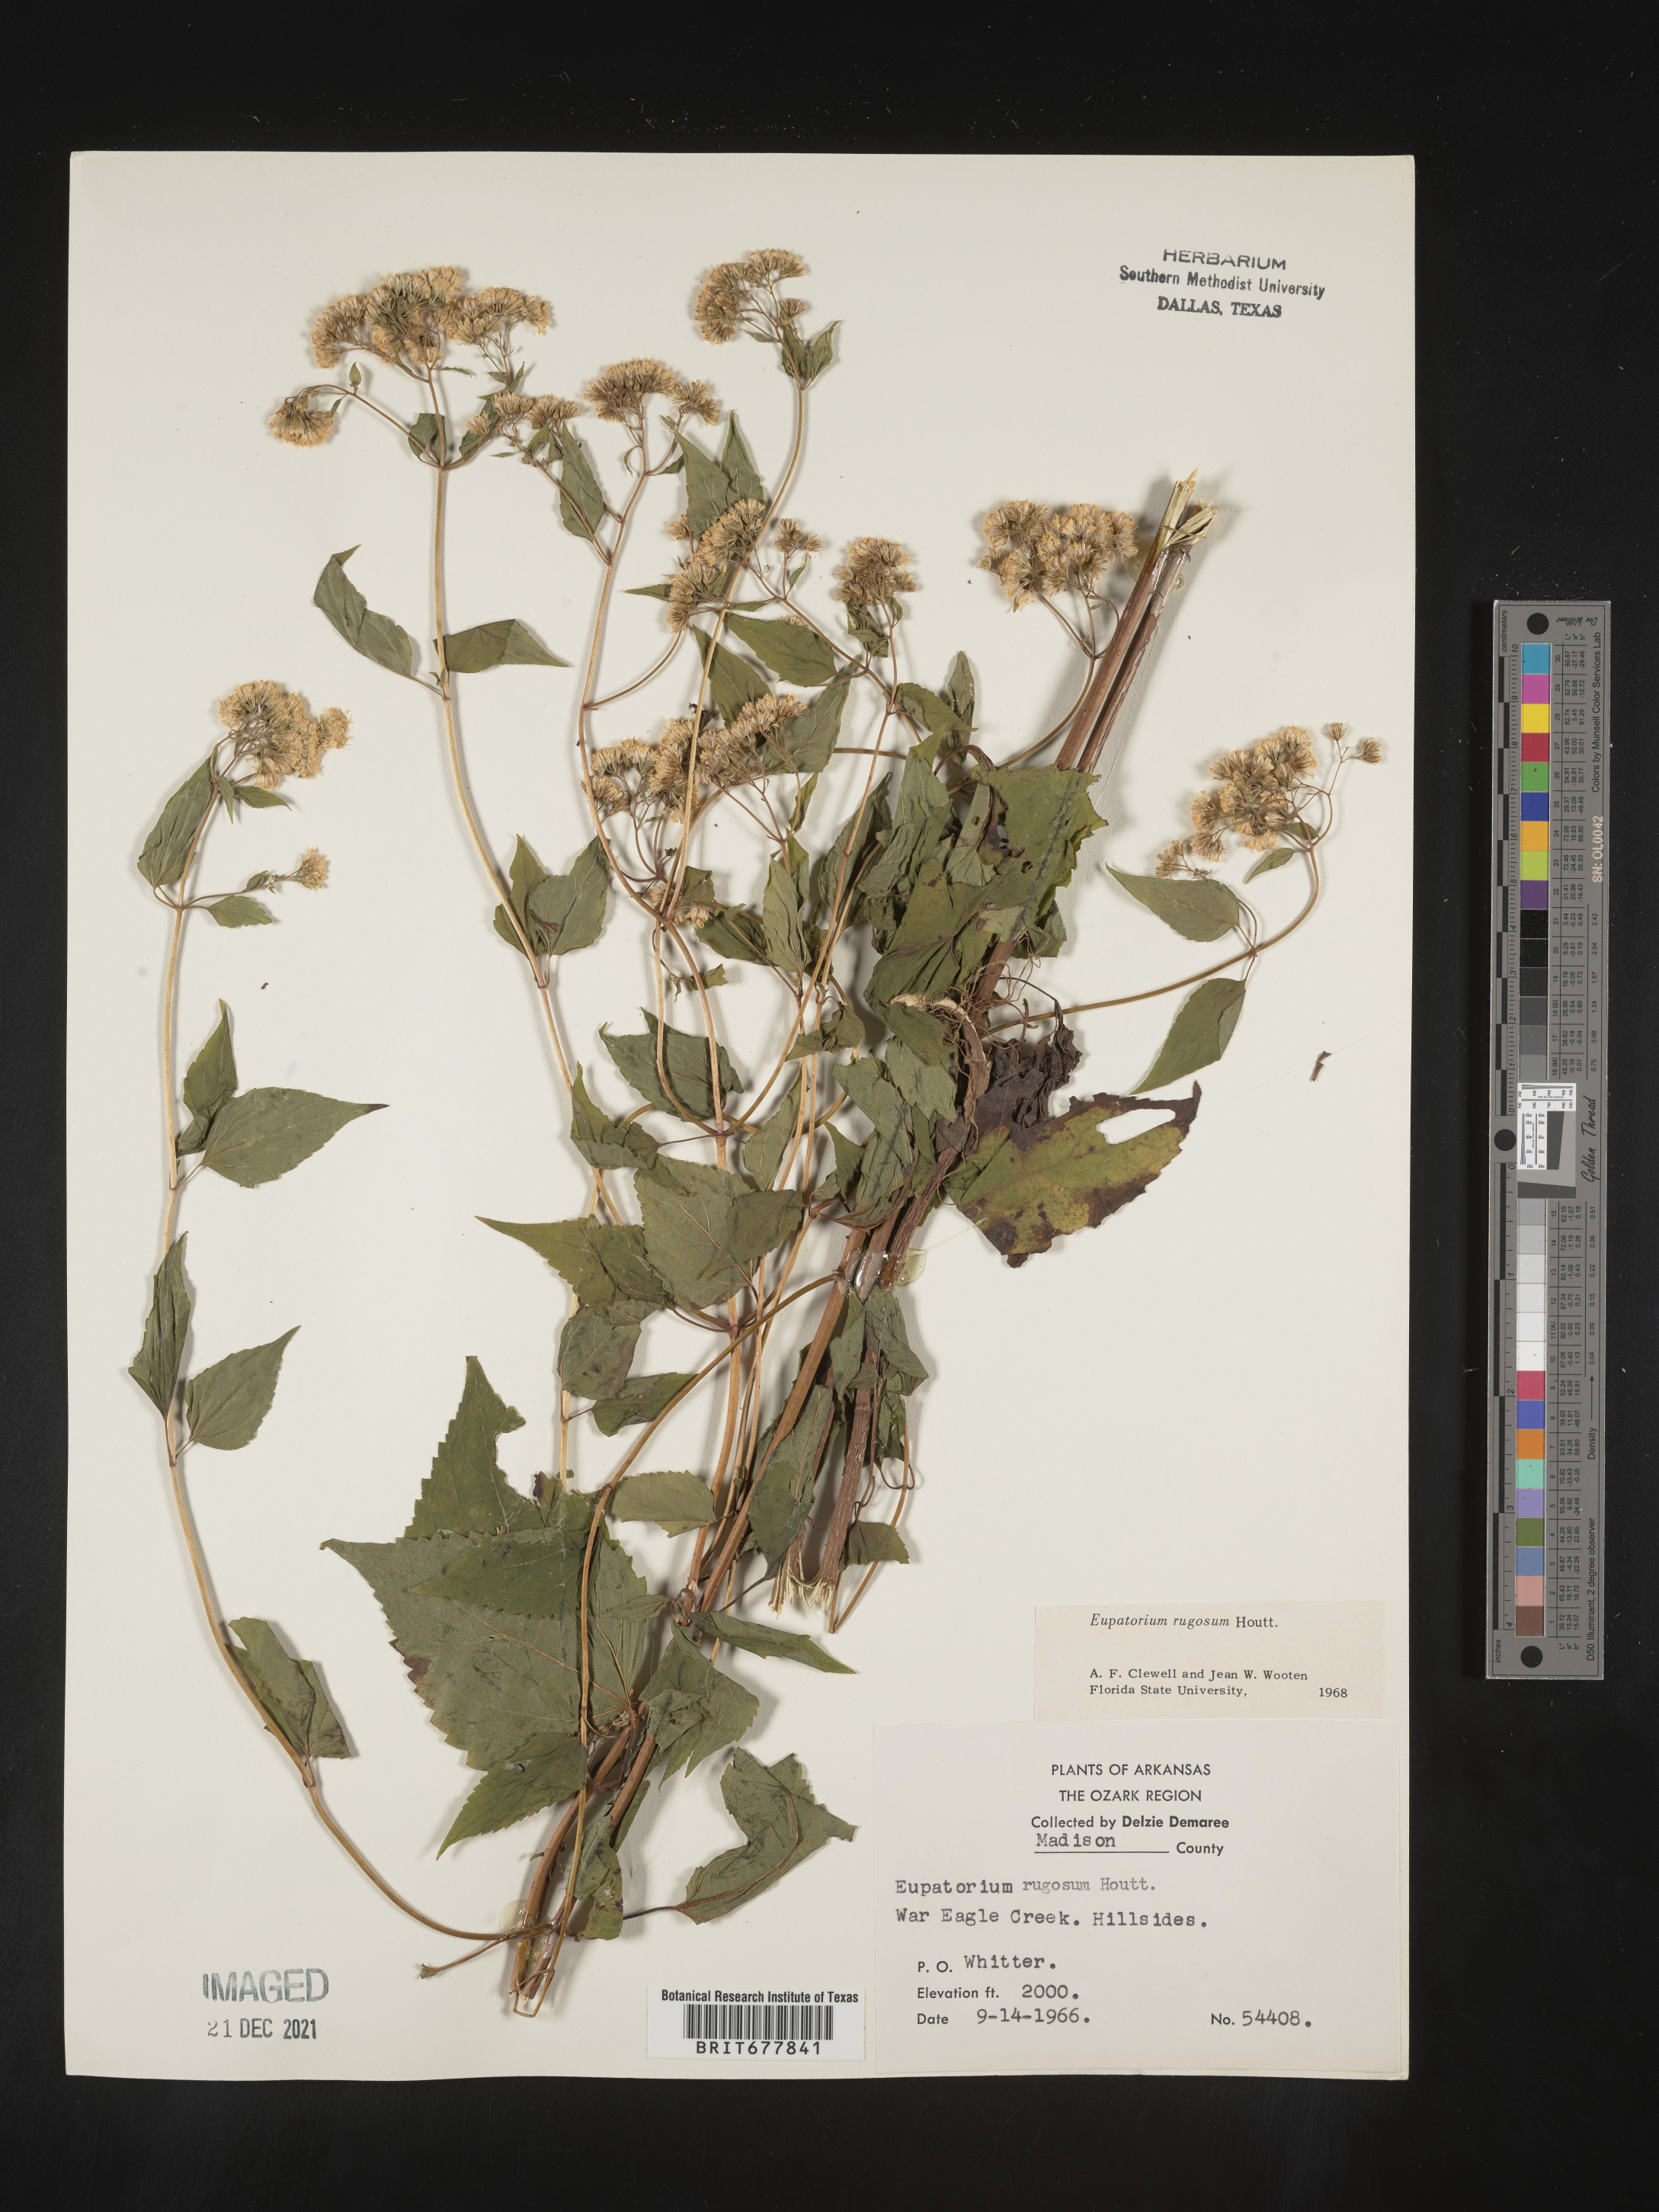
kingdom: Plantae
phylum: Tracheophyta
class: Magnoliopsida
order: Asterales
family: Asteraceae
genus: Ageratina
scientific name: Ageratina altissima
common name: White snakeroot
